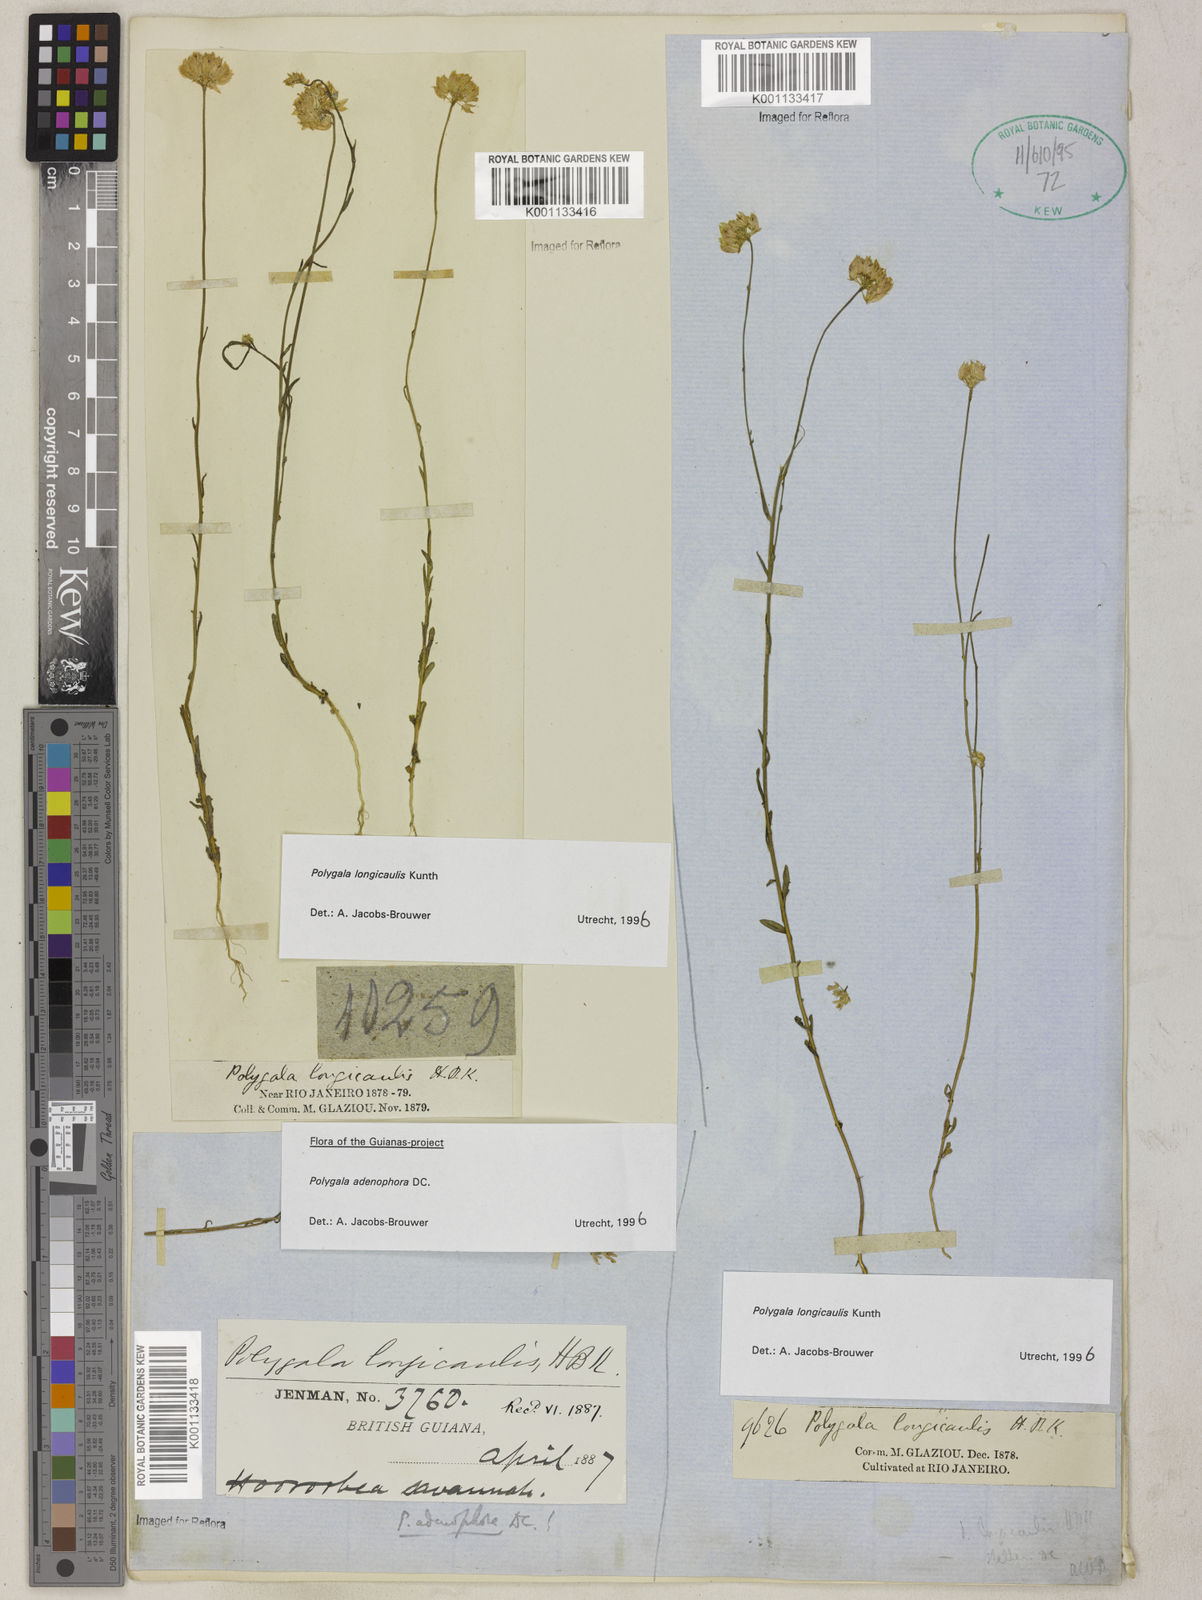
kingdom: Plantae
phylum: Tracheophyta
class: Magnoliopsida
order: Fabales
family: Polygalaceae
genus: Polygala
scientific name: Polygala longicaulis
